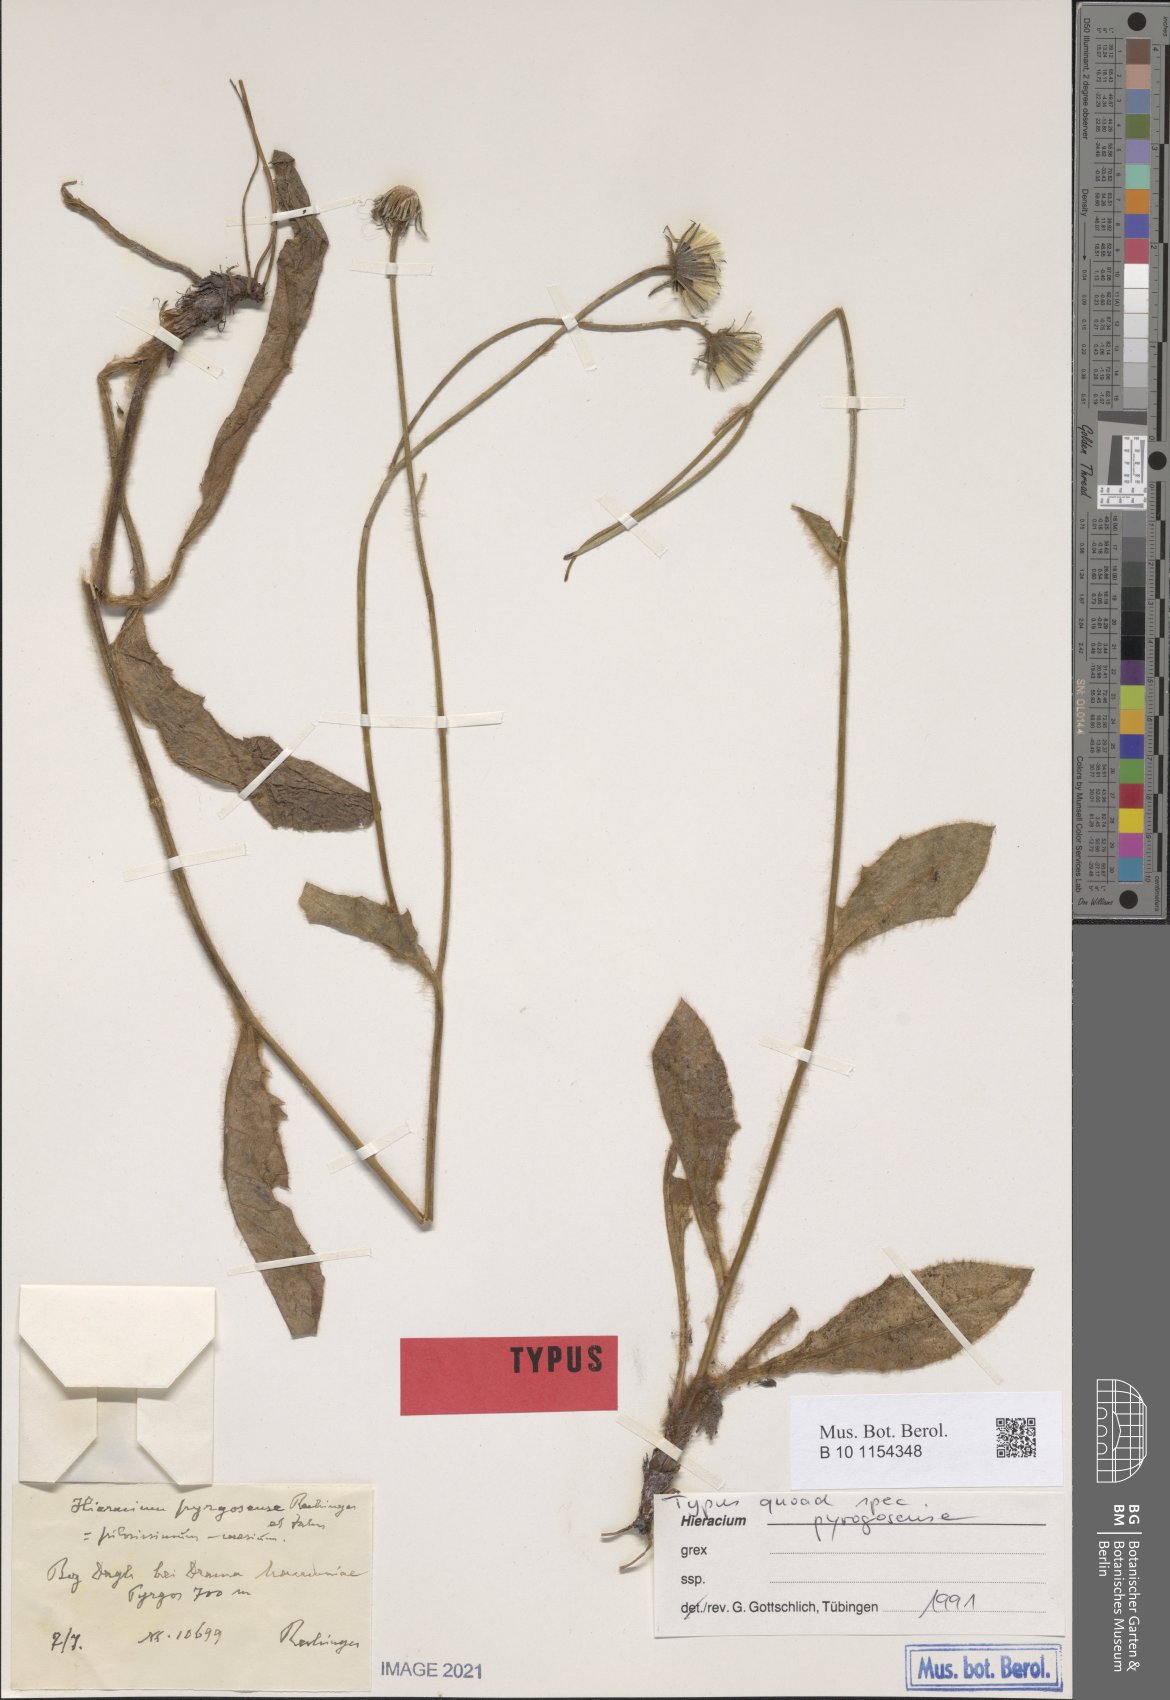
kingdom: Plantae
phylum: Tracheophyta
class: Magnoliopsida
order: Asterales
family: Asteraceae
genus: Hieracium
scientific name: Hieracium pyrgosense
